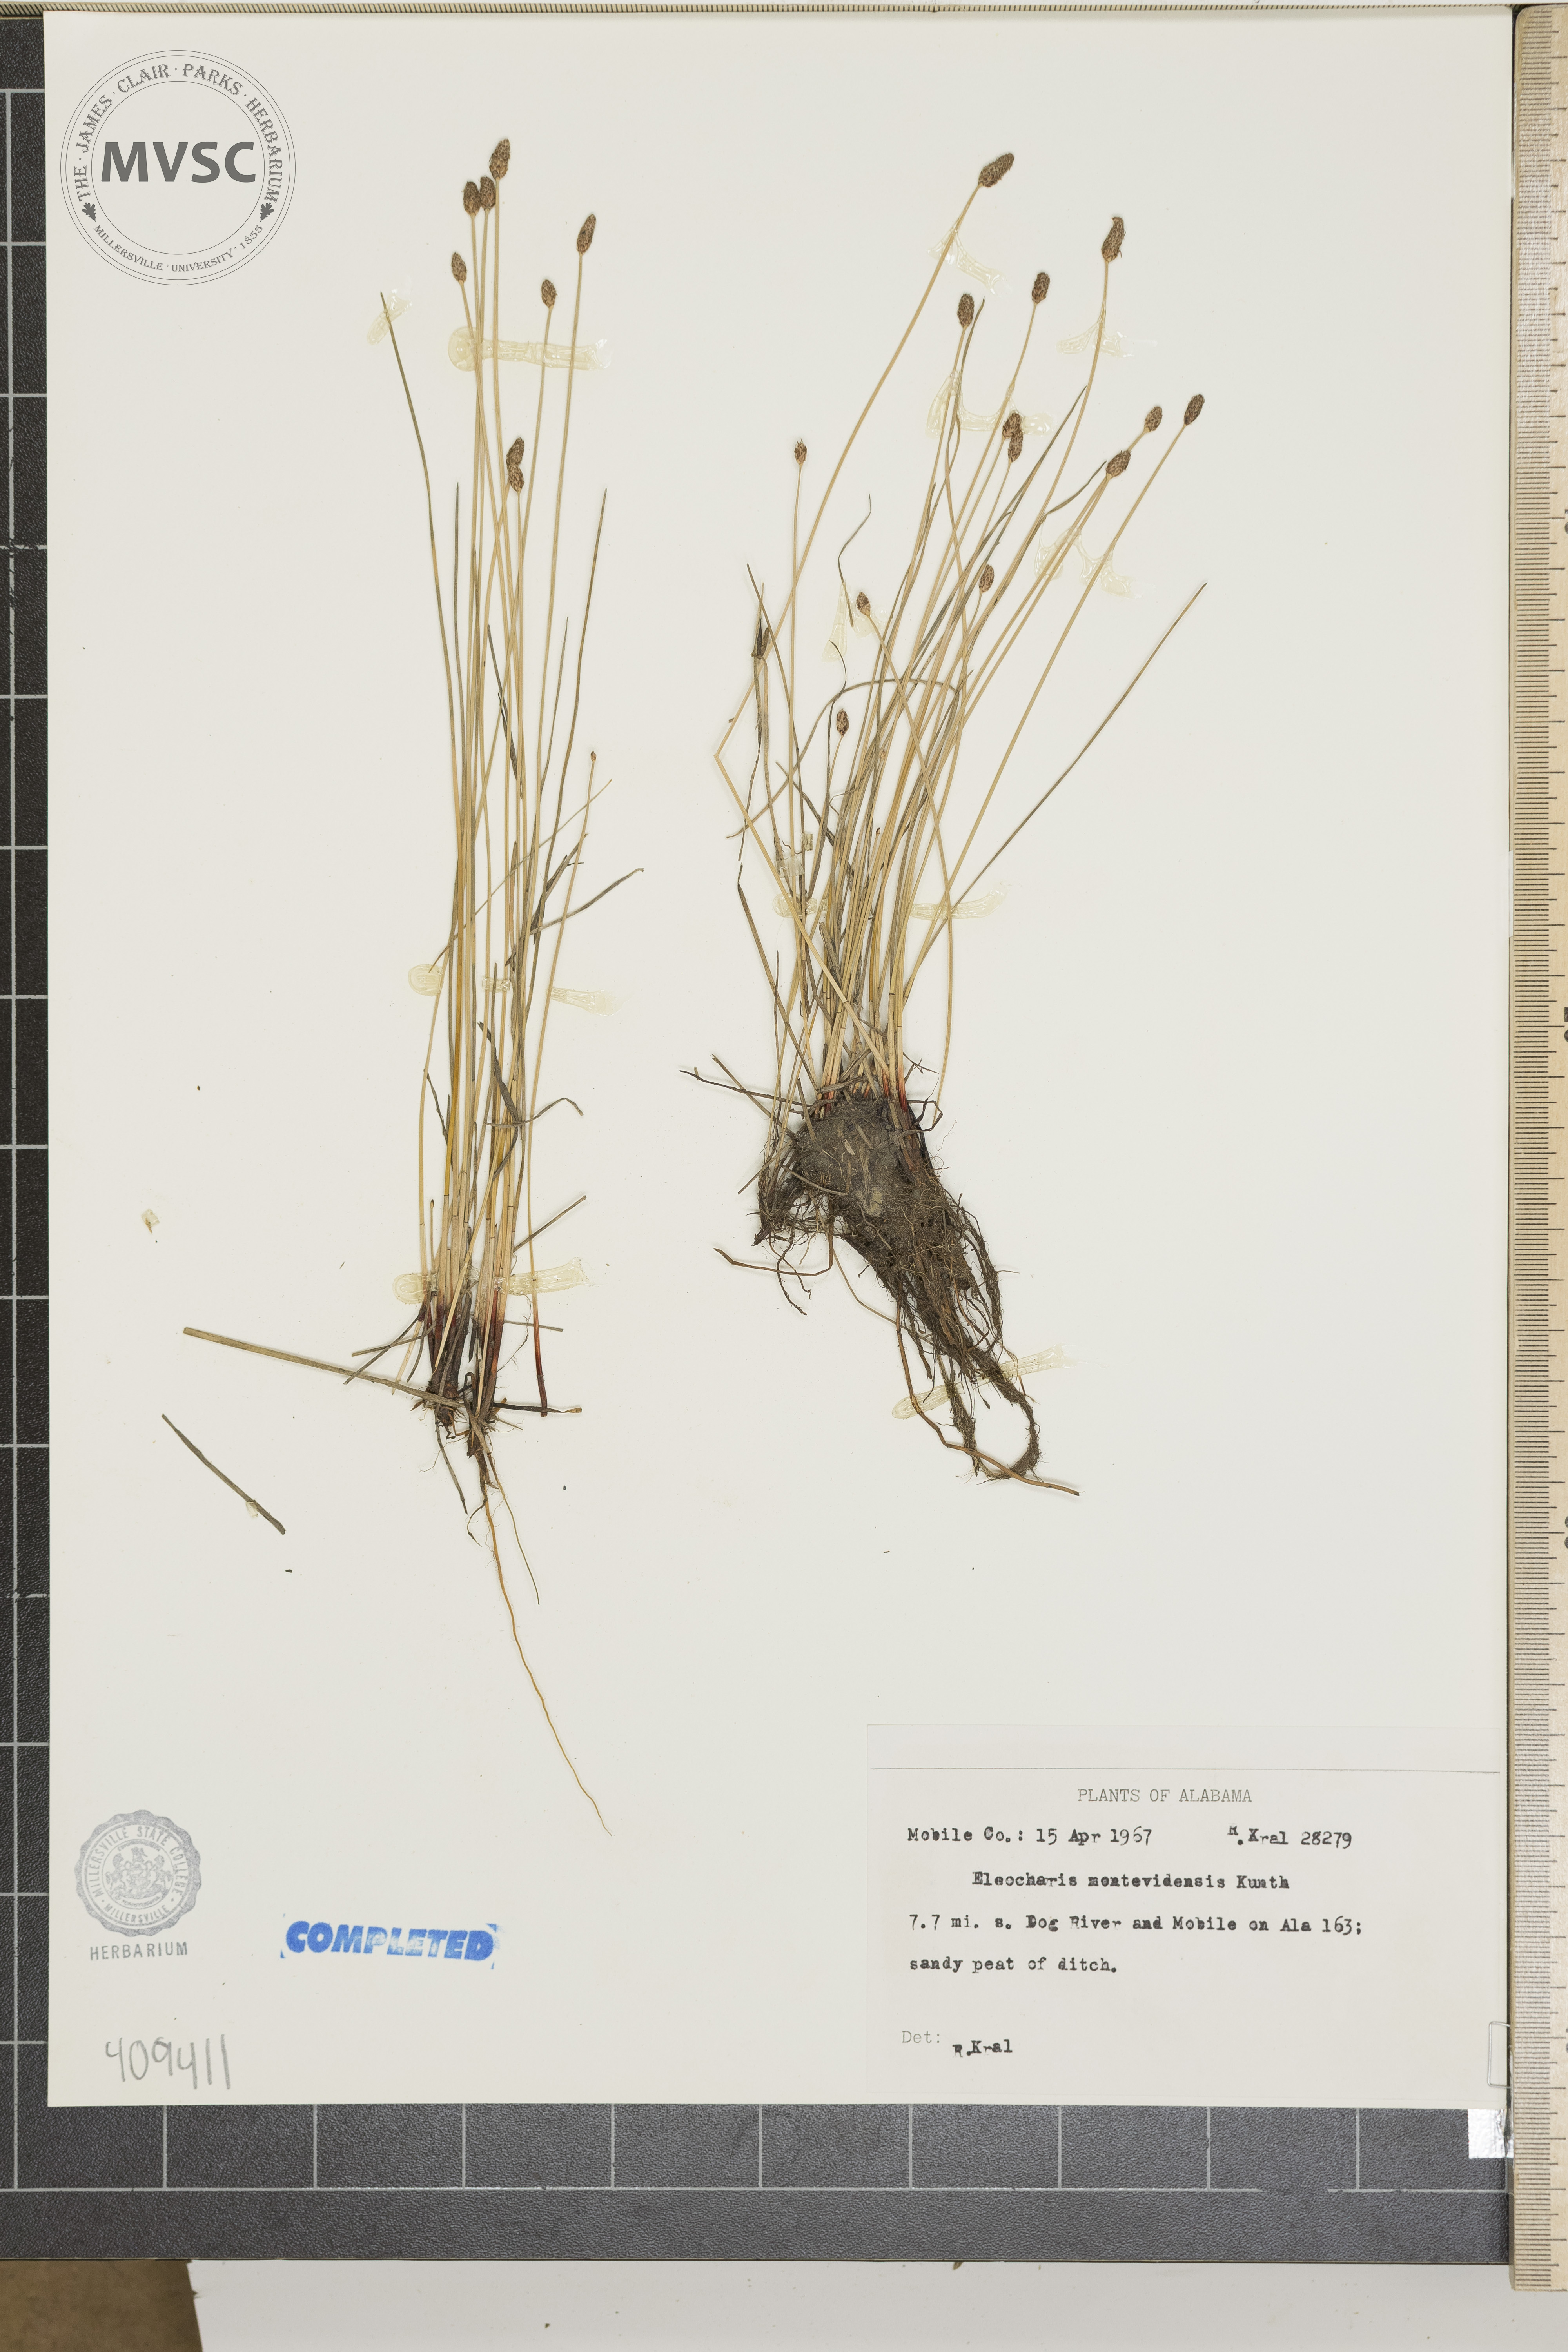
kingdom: Plantae
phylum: Tracheophyta
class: Liliopsida
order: Poales
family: Cyperaceae
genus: Eleocharis
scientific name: Eleocharis montevidensis
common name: Sand spike-rush
